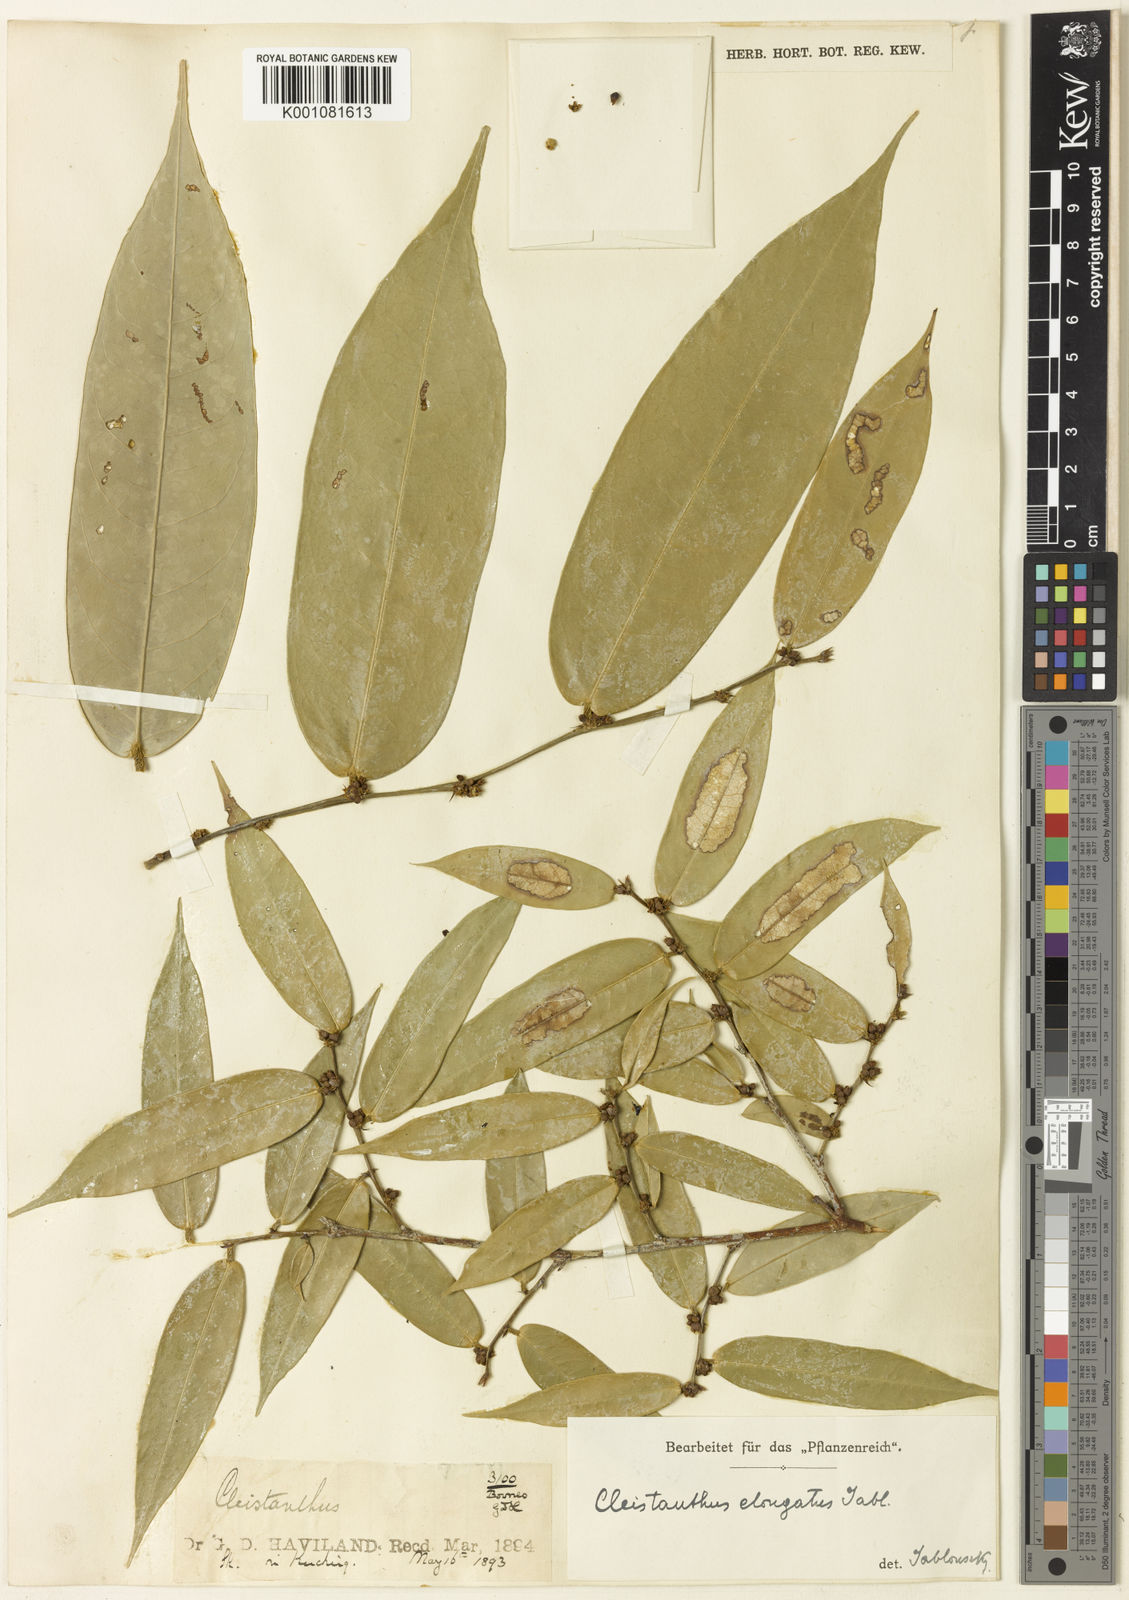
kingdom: Plantae
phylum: Tracheophyta
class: Magnoliopsida
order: Malpighiales
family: Phyllanthaceae
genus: Cleistanthus
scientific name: Cleistanthus elongatus
